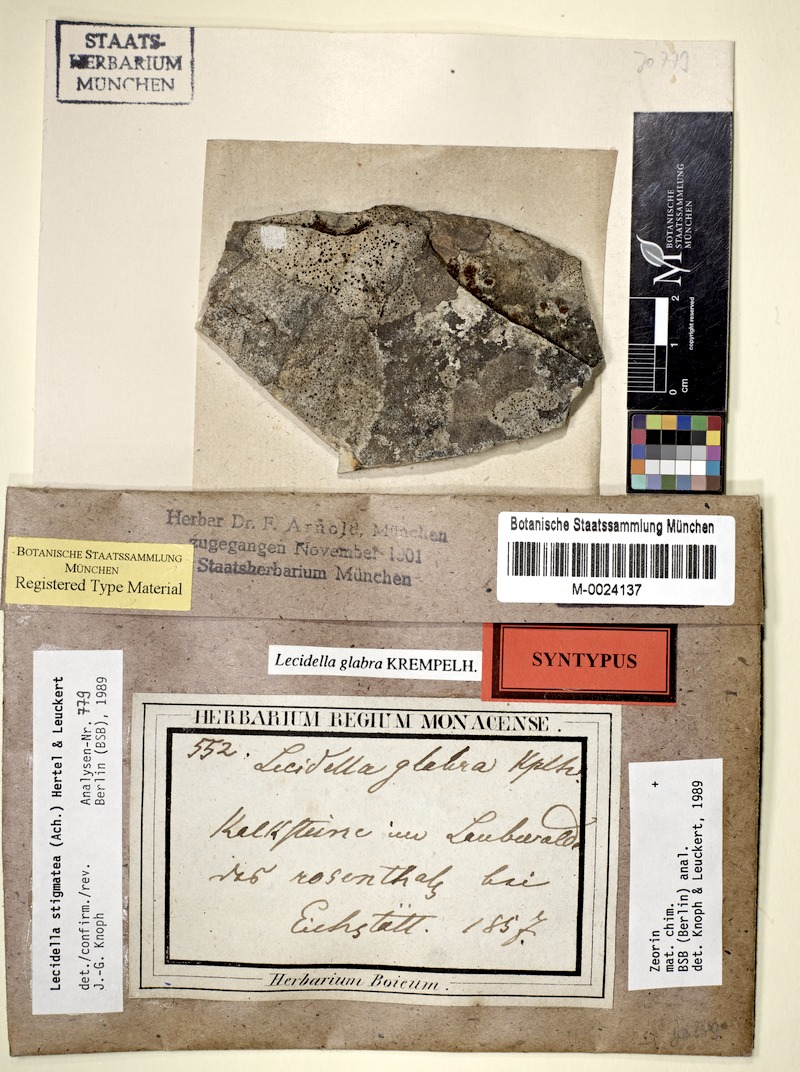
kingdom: Fungi
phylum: Ascomycota
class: Lecanoromycetes
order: Lecanorales
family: Lecanoraceae
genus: Lecidella
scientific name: Lecidella stigmatea
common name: Limestone disc lichen
